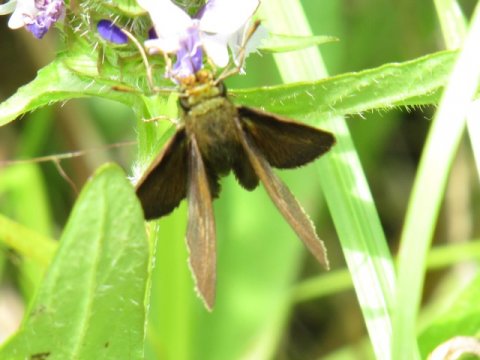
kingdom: Animalia
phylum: Arthropoda
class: Insecta
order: Lepidoptera
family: Hesperiidae
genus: Euphyes
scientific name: Euphyes vestris
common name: Dun Skipper
